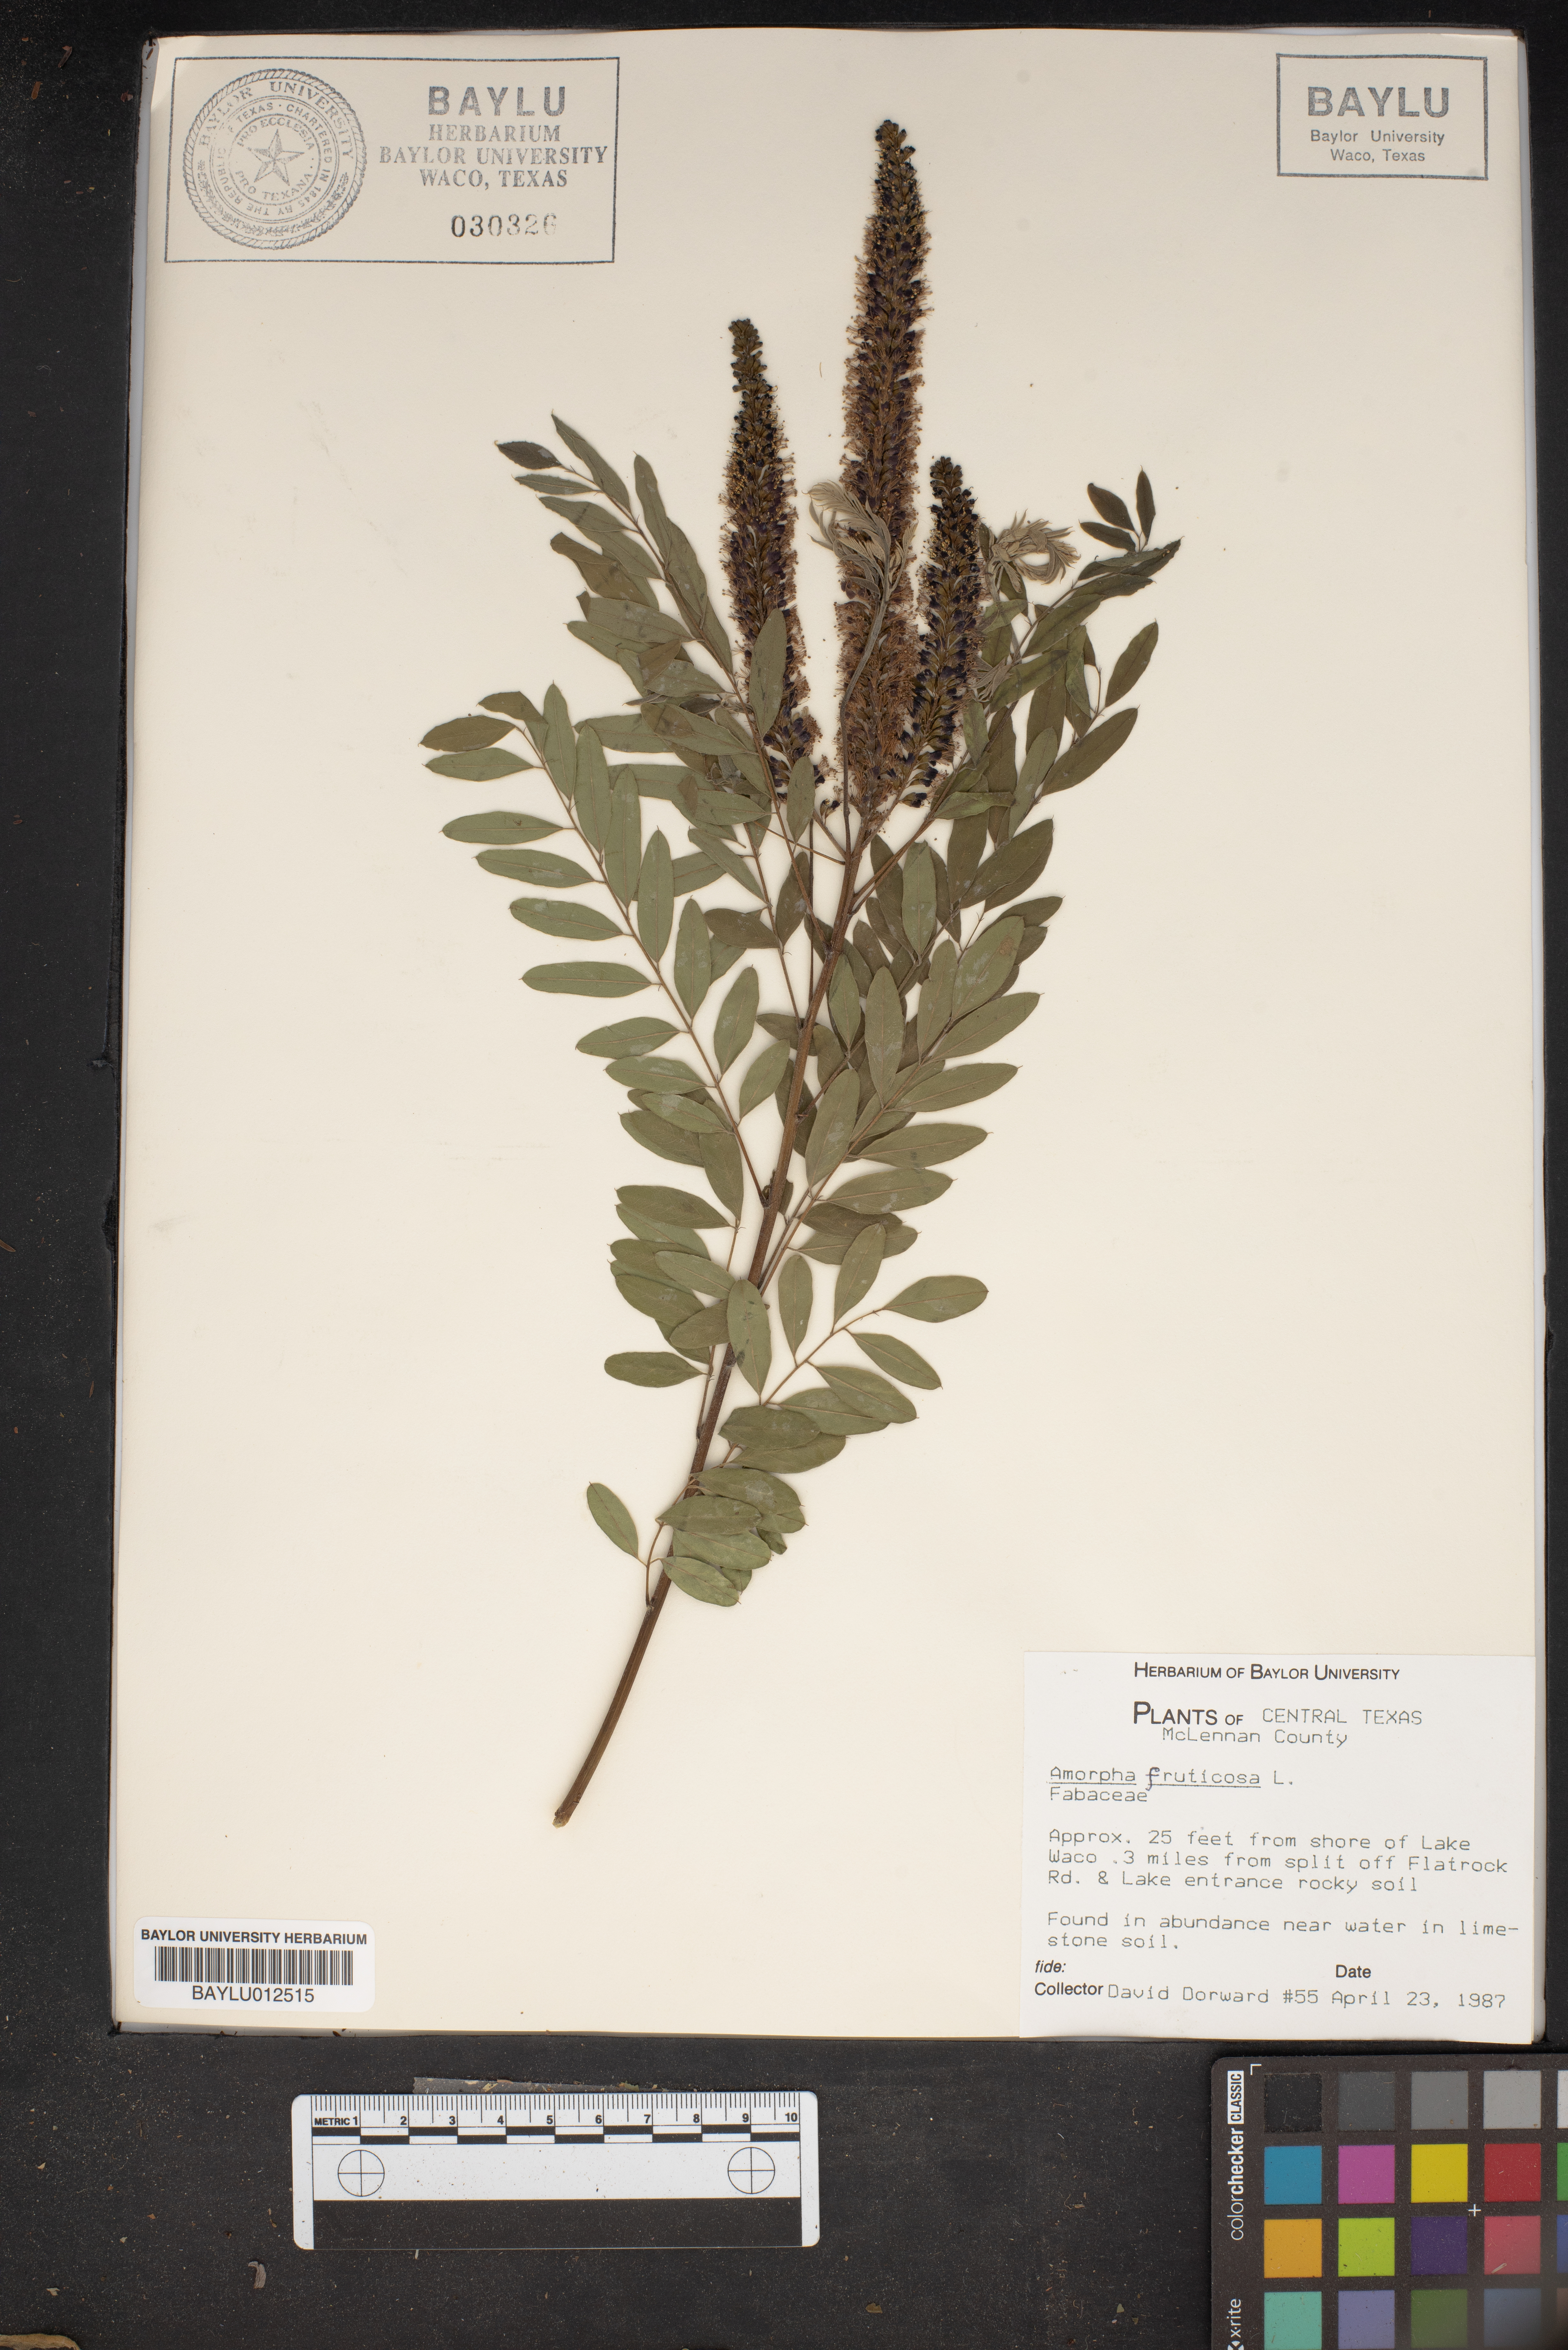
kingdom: Plantae
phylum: Tracheophyta
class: Magnoliopsida
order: Fabales
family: Fabaceae
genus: Amorpha
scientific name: Amorpha fruticosa
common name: False indigo
